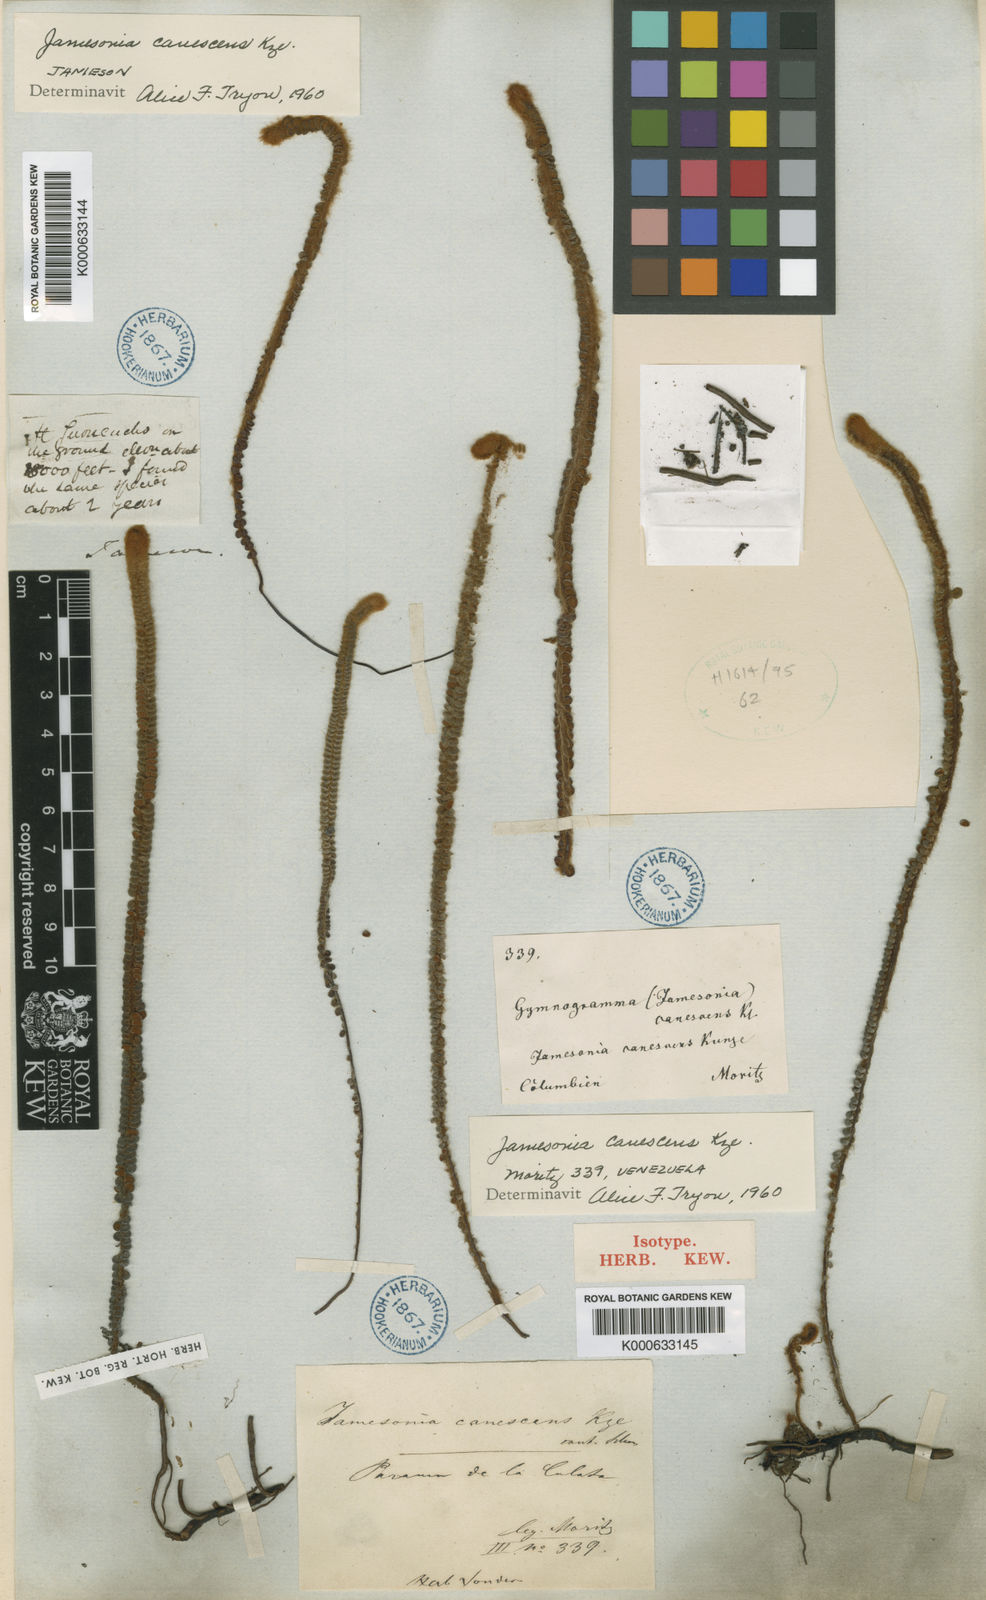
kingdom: Plantae
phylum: Tracheophyta
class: Polypodiopsida
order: Polypodiales
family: Pteridaceae
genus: Jamesonia
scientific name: Jamesonia canescens
